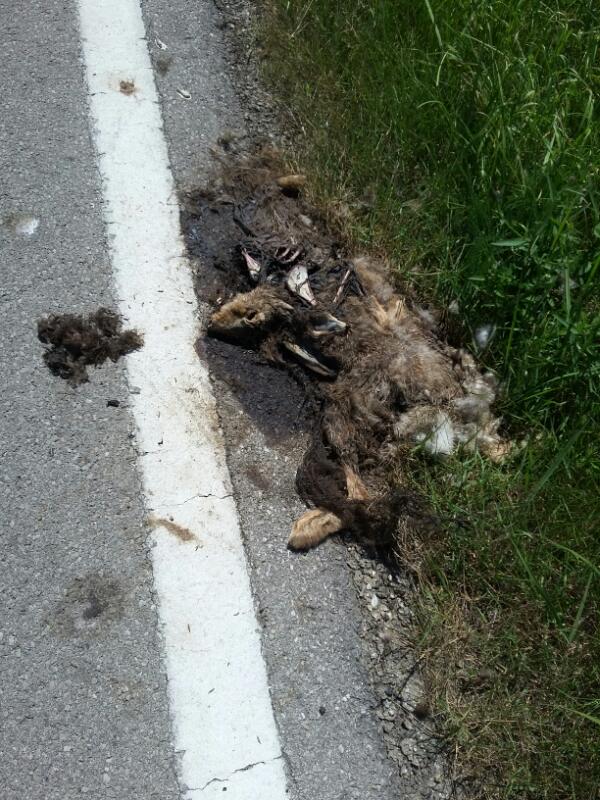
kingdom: Animalia
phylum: Chordata
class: Mammalia
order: Lagomorpha
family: Leporidae
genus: Lepus
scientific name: Lepus europaeus
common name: European hare
